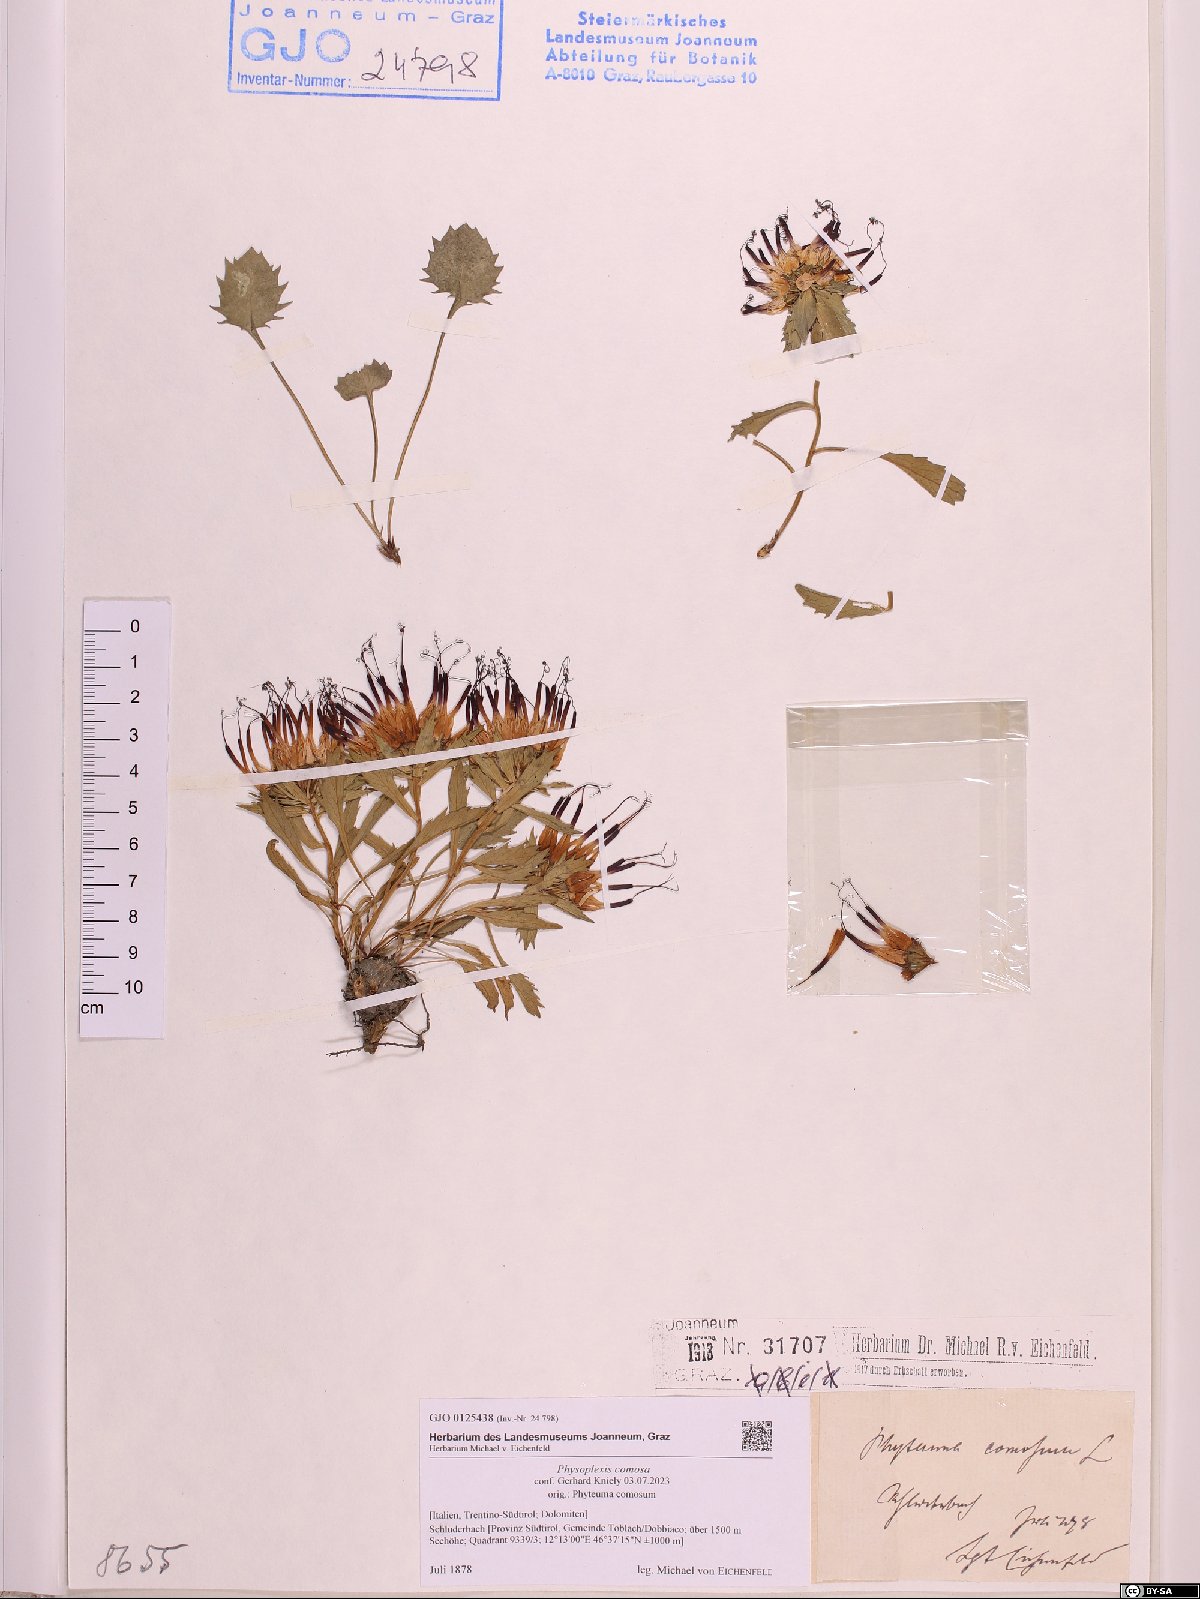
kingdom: Plantae
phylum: Tracheophyta
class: Magnoliopsida
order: Asterales
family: Campanulaceae
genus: Physoplexis
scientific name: Physoplexis comosa
